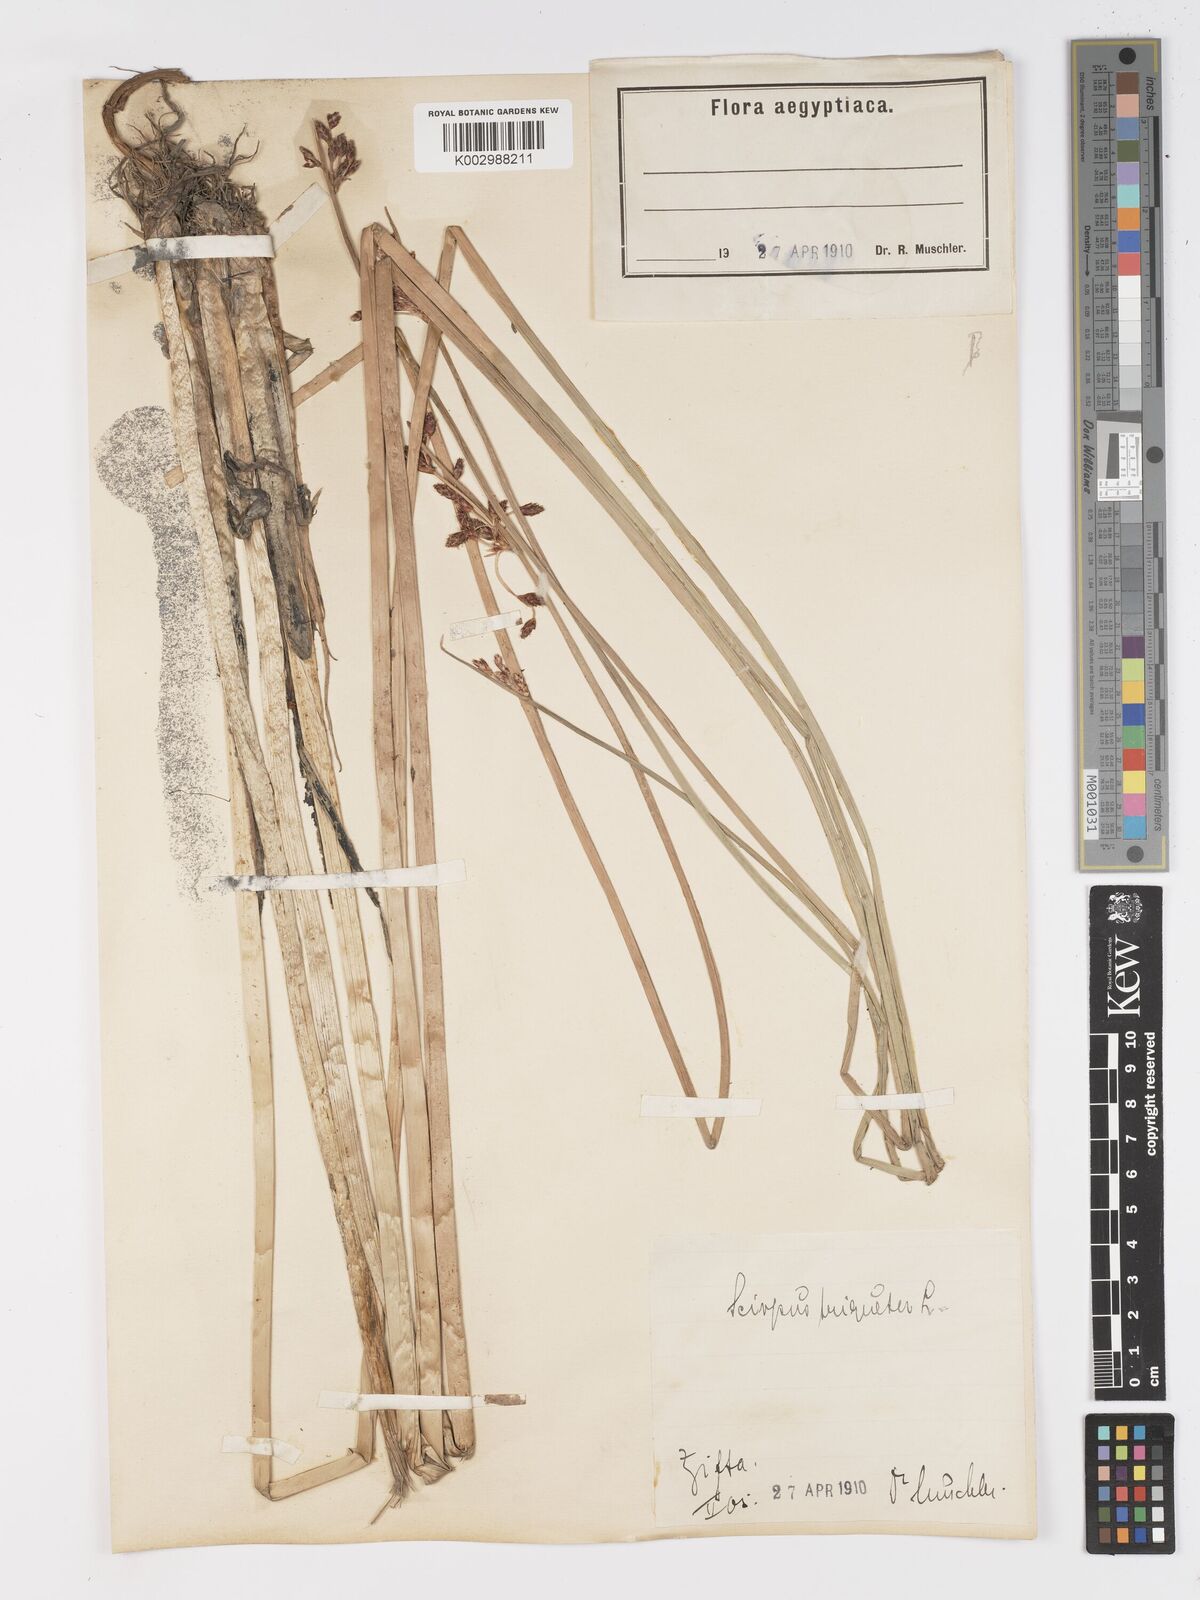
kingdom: Plantae
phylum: Tracheophyta
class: Liliopsida
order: Poales
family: Cyperaceae
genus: Schoenoplectus
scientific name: Schoenoplectus litoralis
